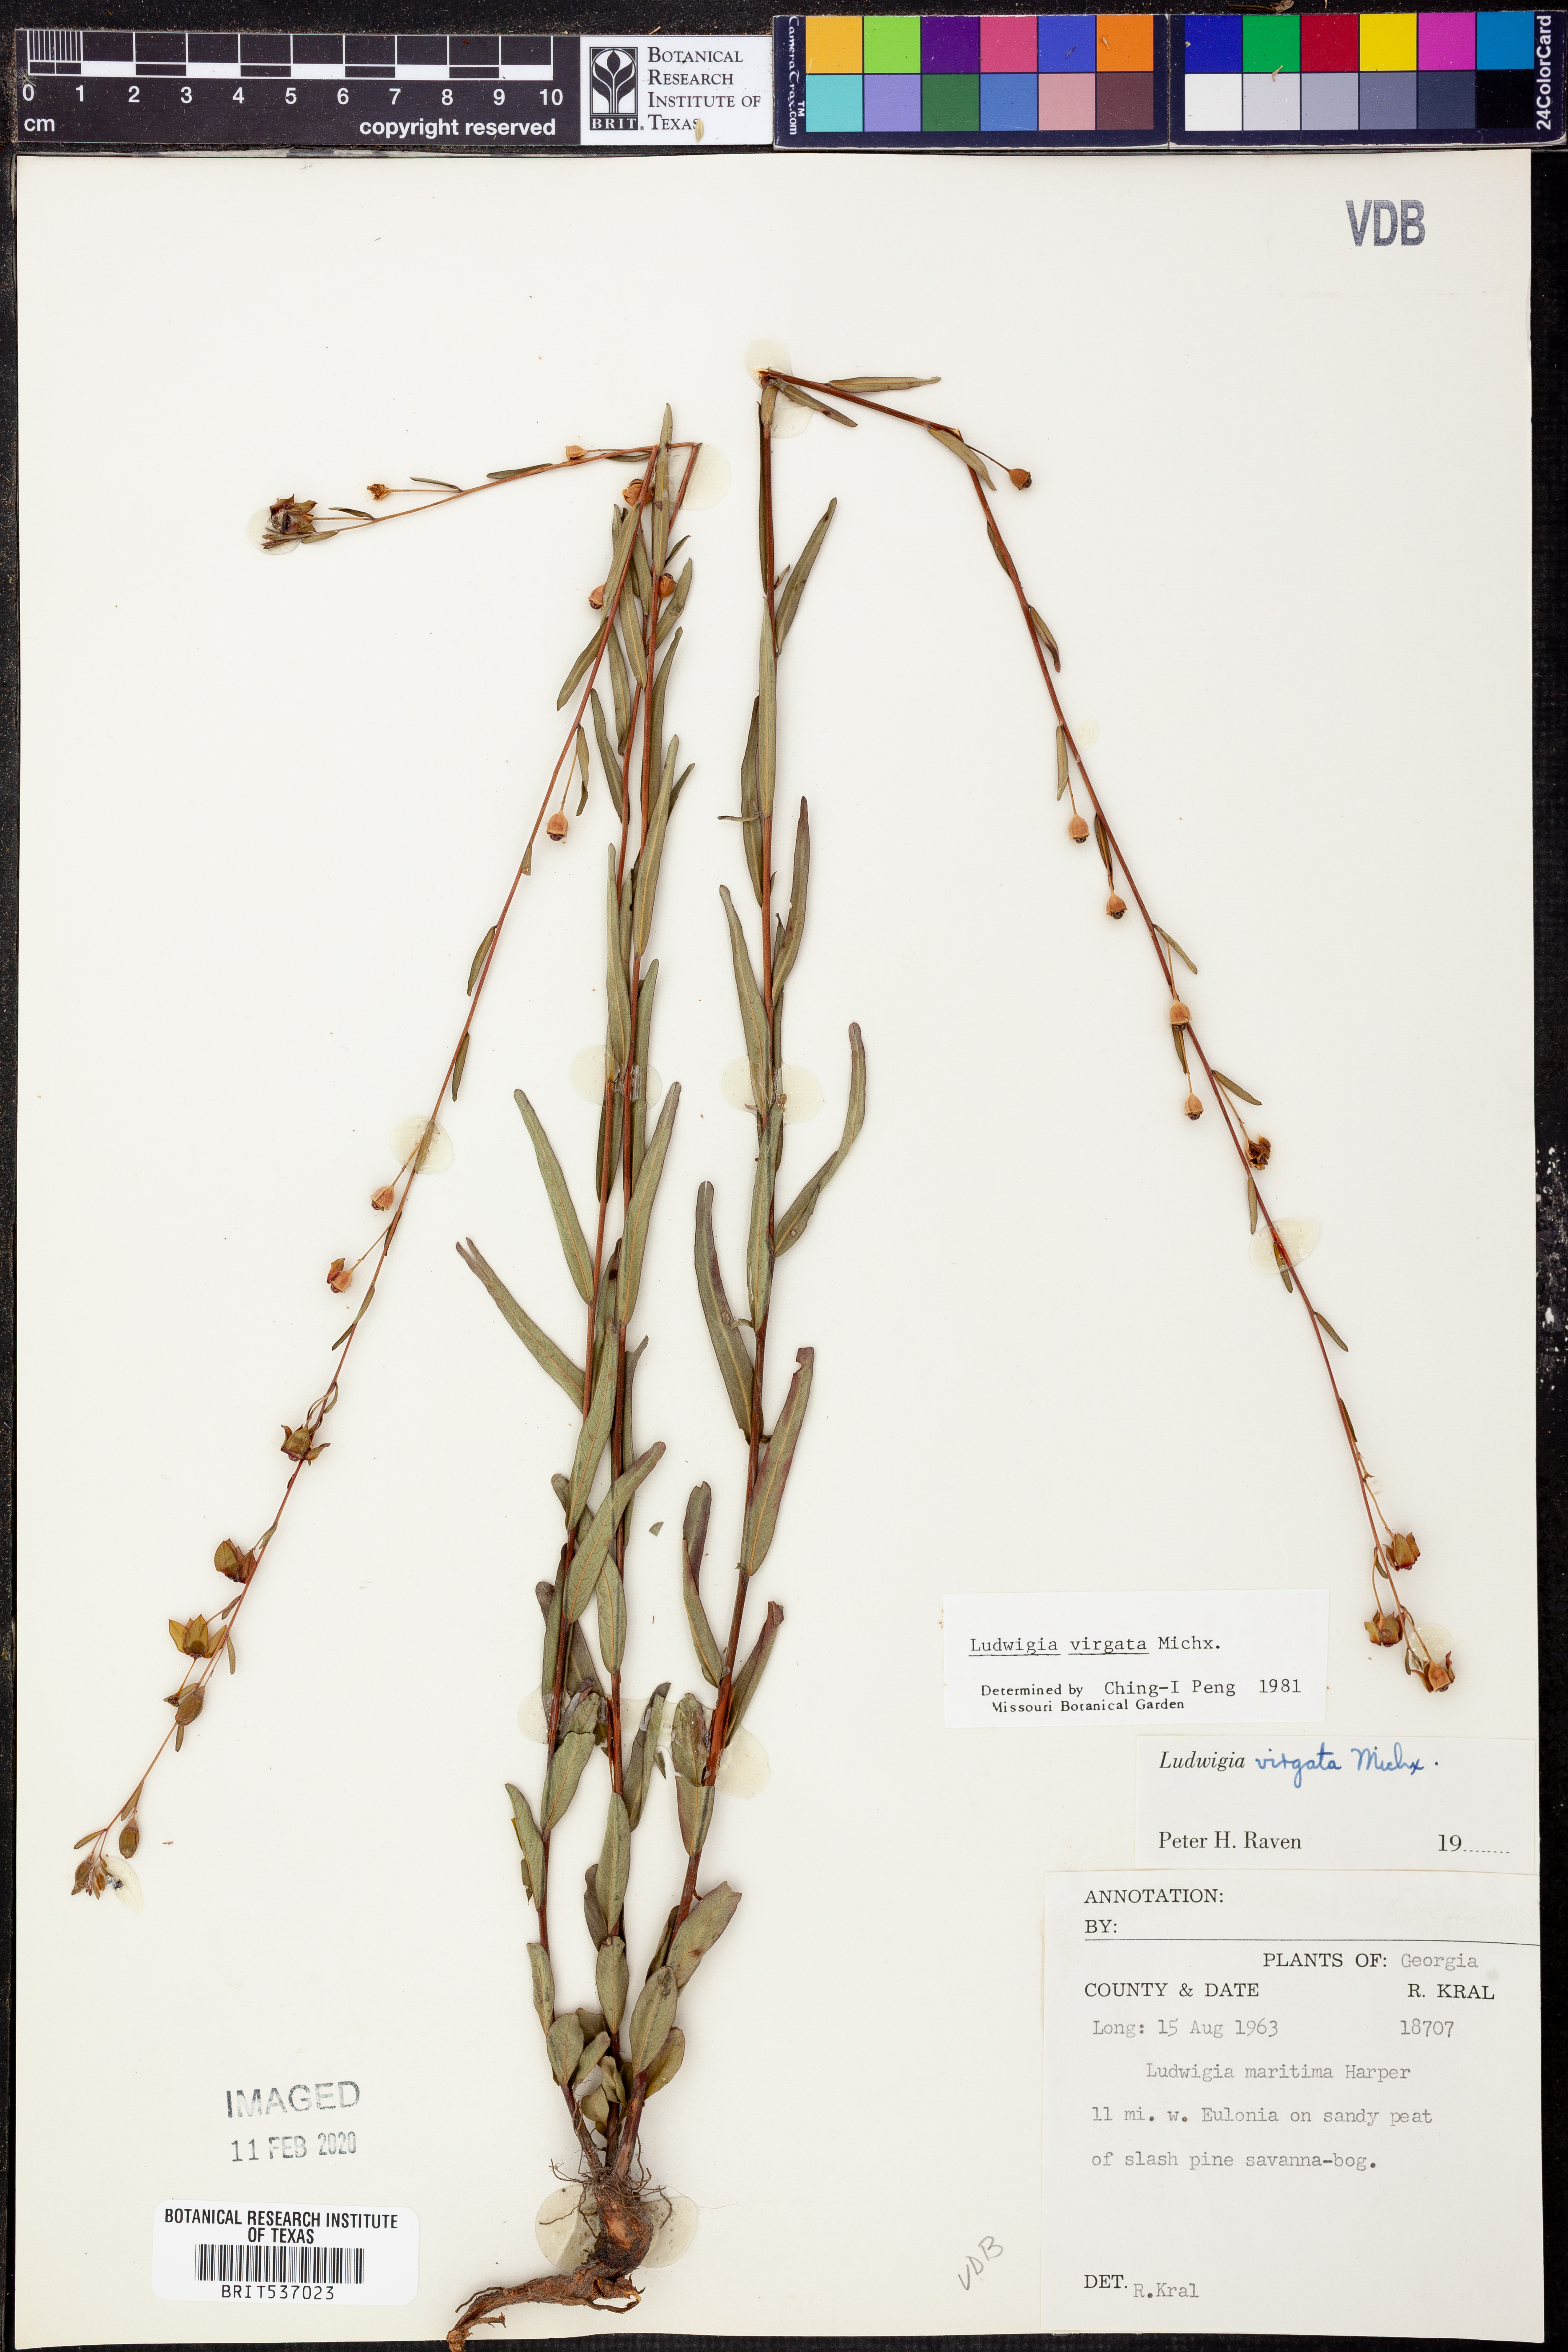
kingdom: Plantae
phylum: Tracheophyta
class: Magnoliopsida
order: Myrtales
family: Onagraceae
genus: Ludwigia
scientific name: Ludwigia virgata
